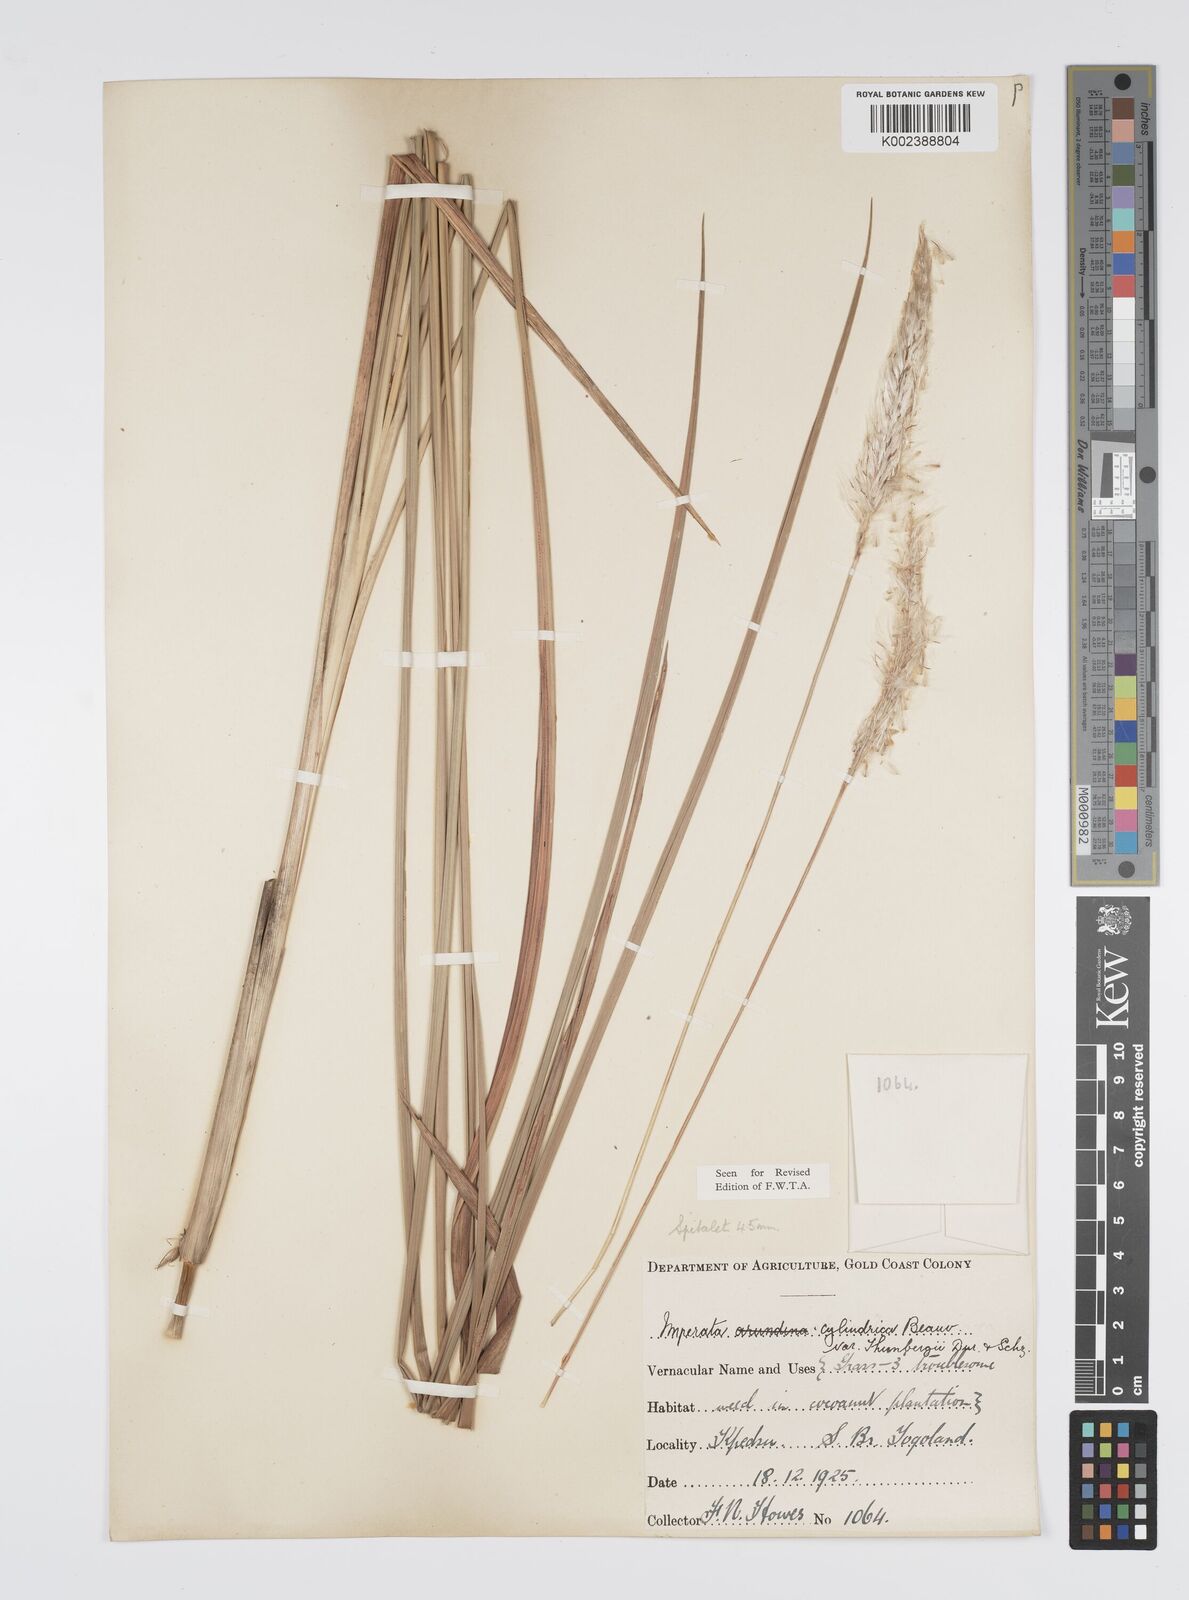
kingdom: Plantae
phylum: Tracheophyta
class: Liliopsida
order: Poales
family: Poaceae
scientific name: Poaceae
